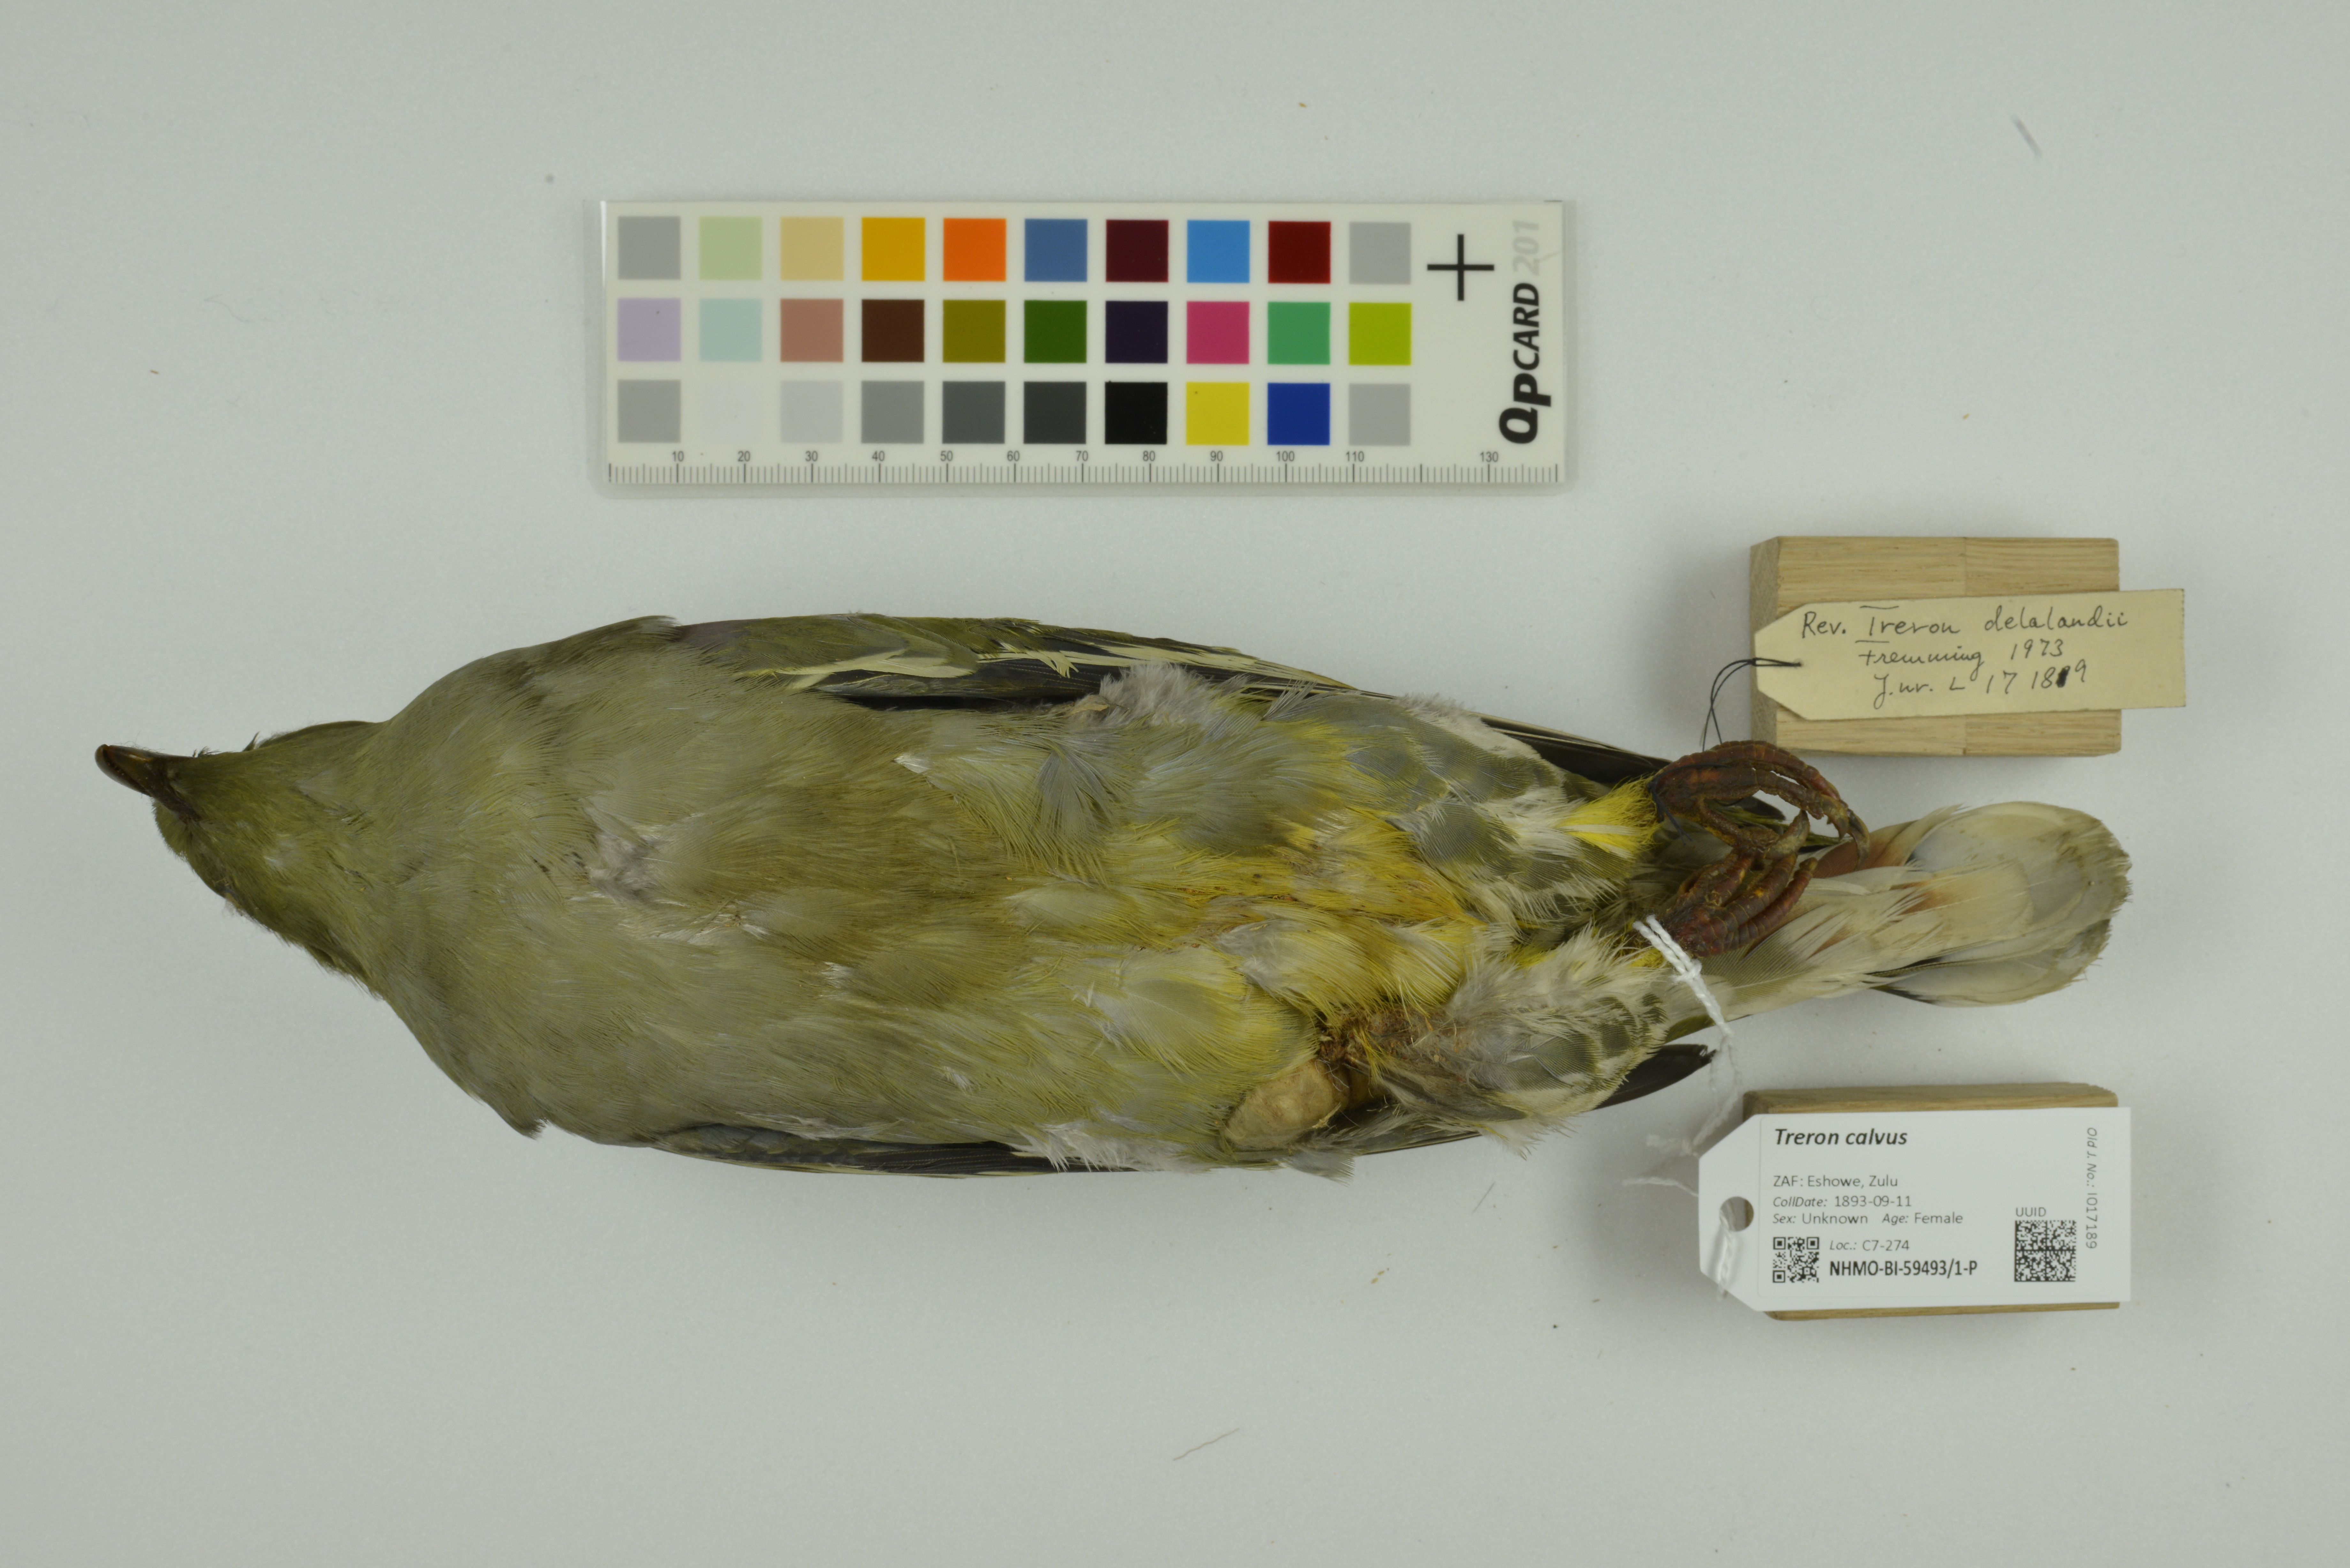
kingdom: Animalia
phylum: Chordata
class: Aves
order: Columbiformes
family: Columbidae
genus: Treron
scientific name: Treron calvus
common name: African green pigeon
